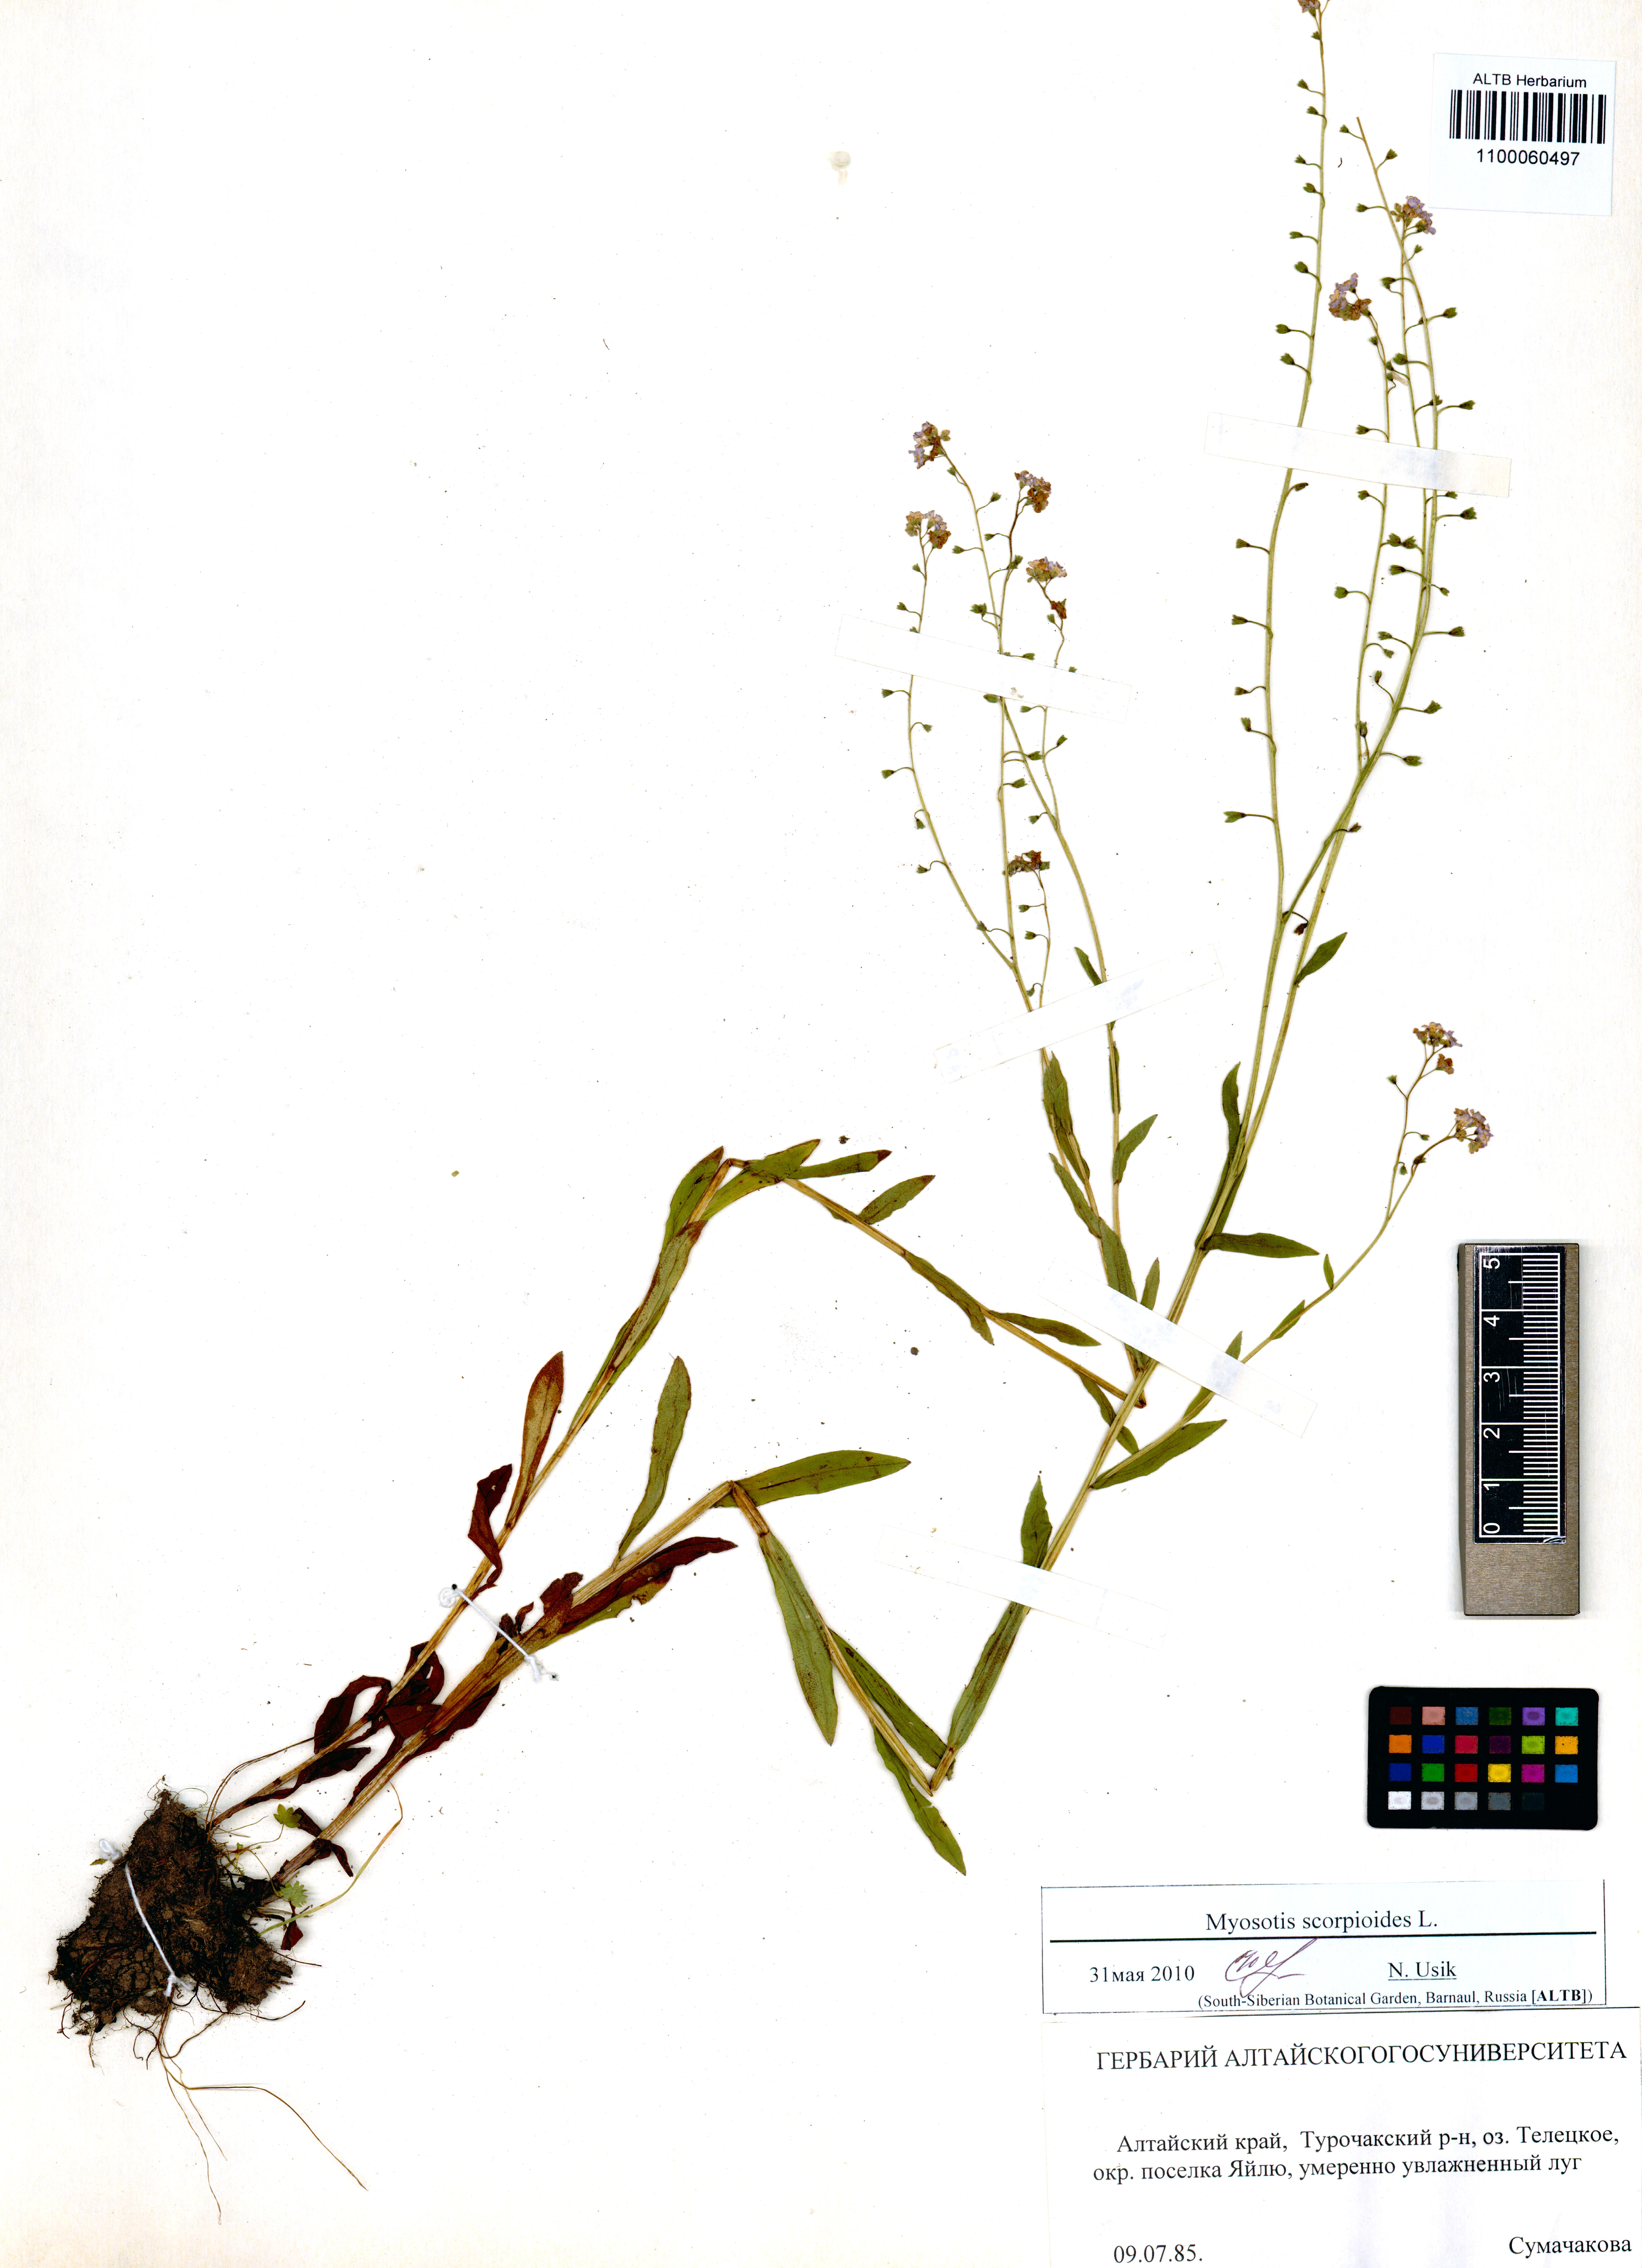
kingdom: Plantae
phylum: Tracheophyta
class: Magnoliopsida
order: Boraginales
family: Boraginaceae
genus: Myosotis
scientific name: Myosotis scorpioides
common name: Water forget-me-not
